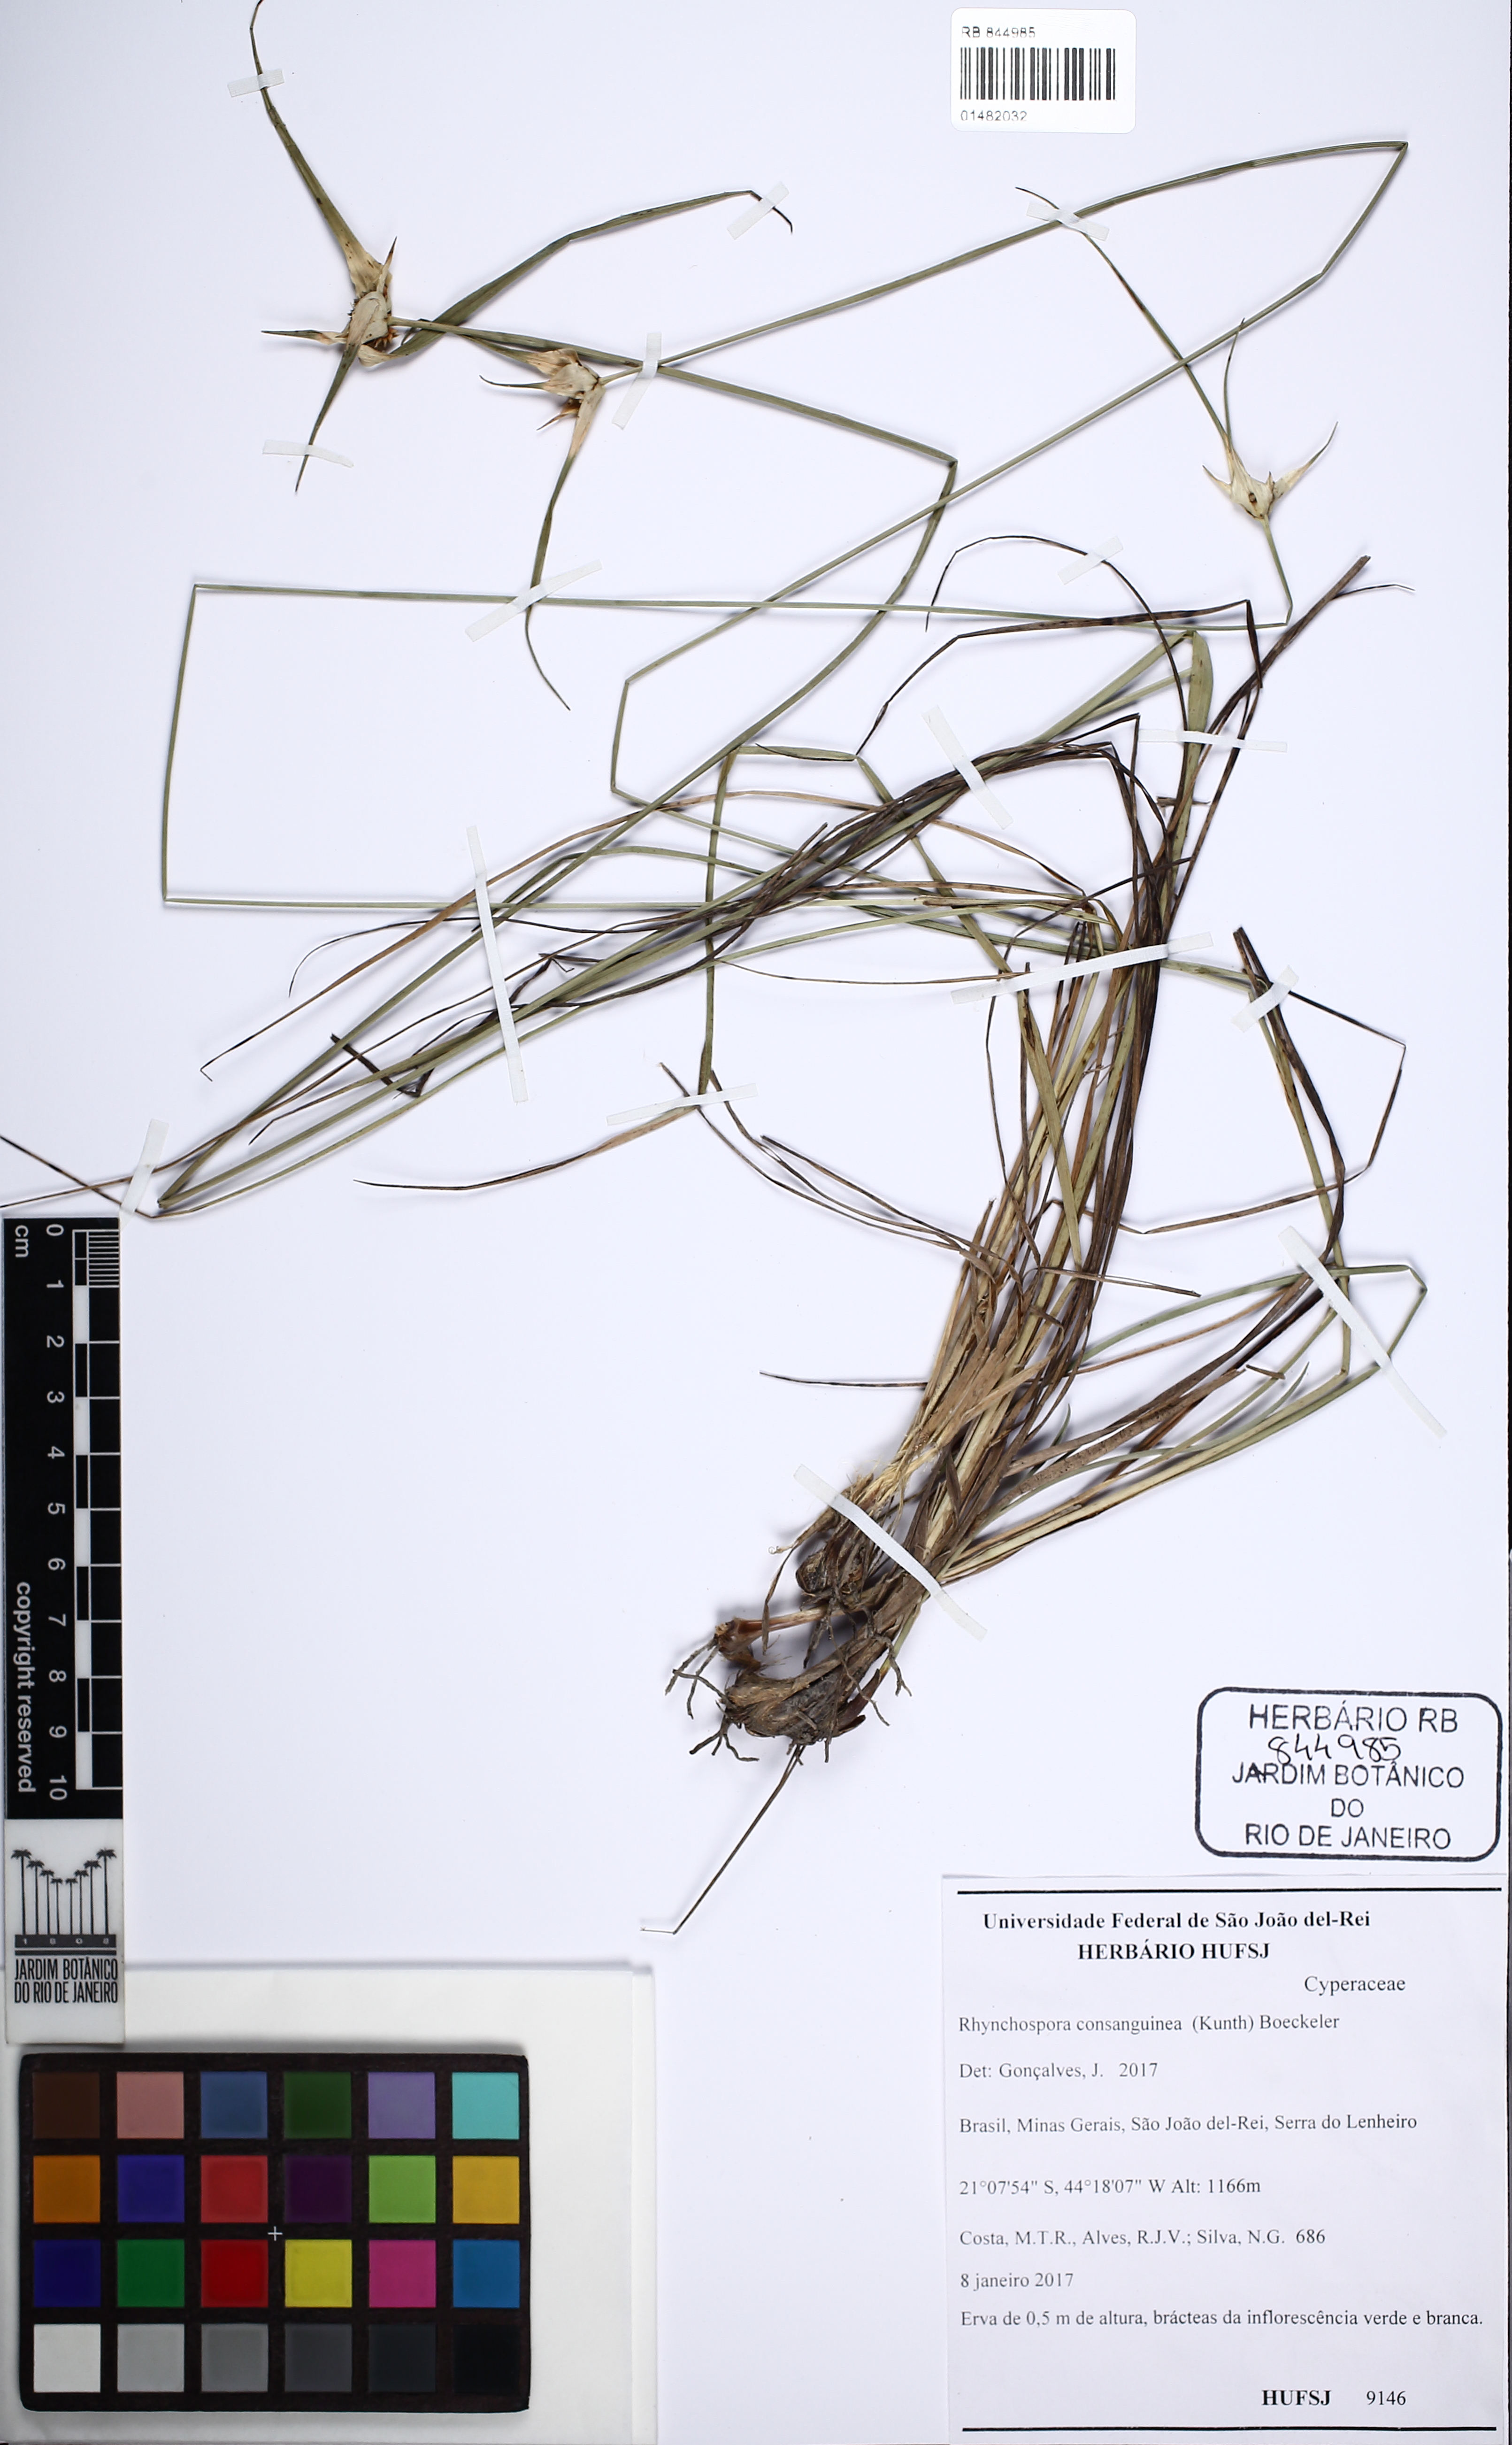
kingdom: Plantae
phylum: Tracheophyta
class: Liliopsida
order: Poales
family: Cyperaceae
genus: Rhynchospora
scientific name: Rhynchospora consanguinea
